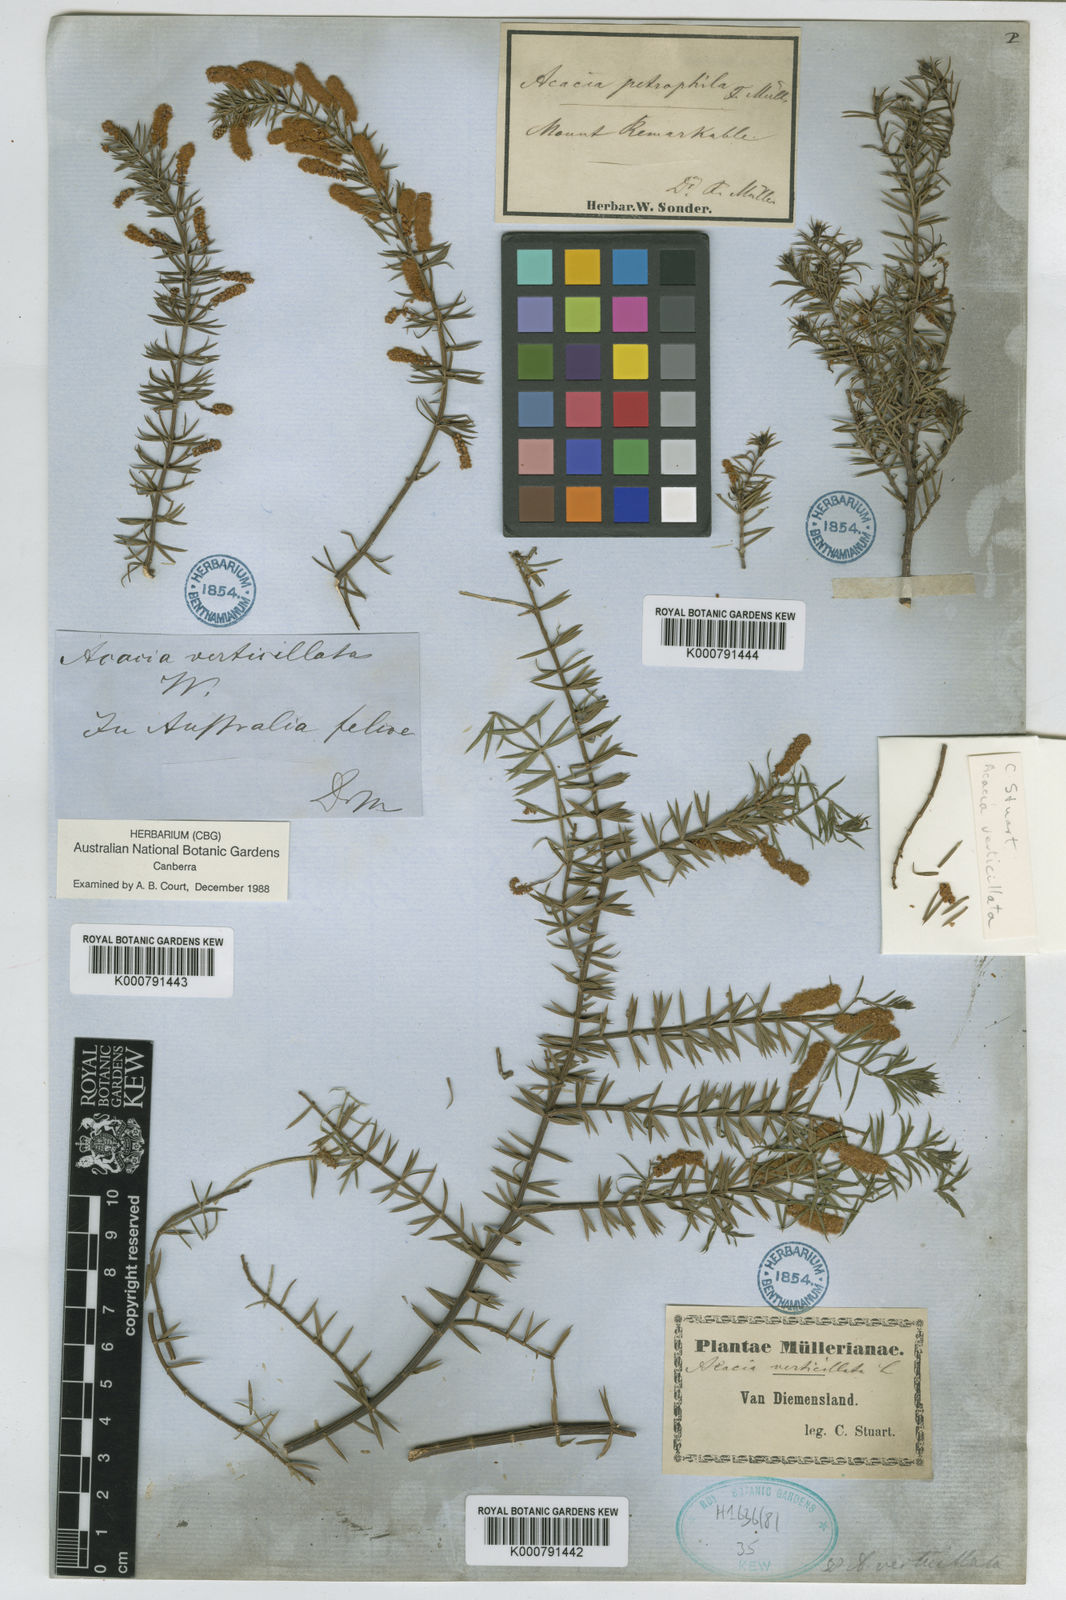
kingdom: Plantae
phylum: Tracheophyta
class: Magnoliopsida
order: Fabales
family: Fabaceae
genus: Acacia
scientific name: Acacia
